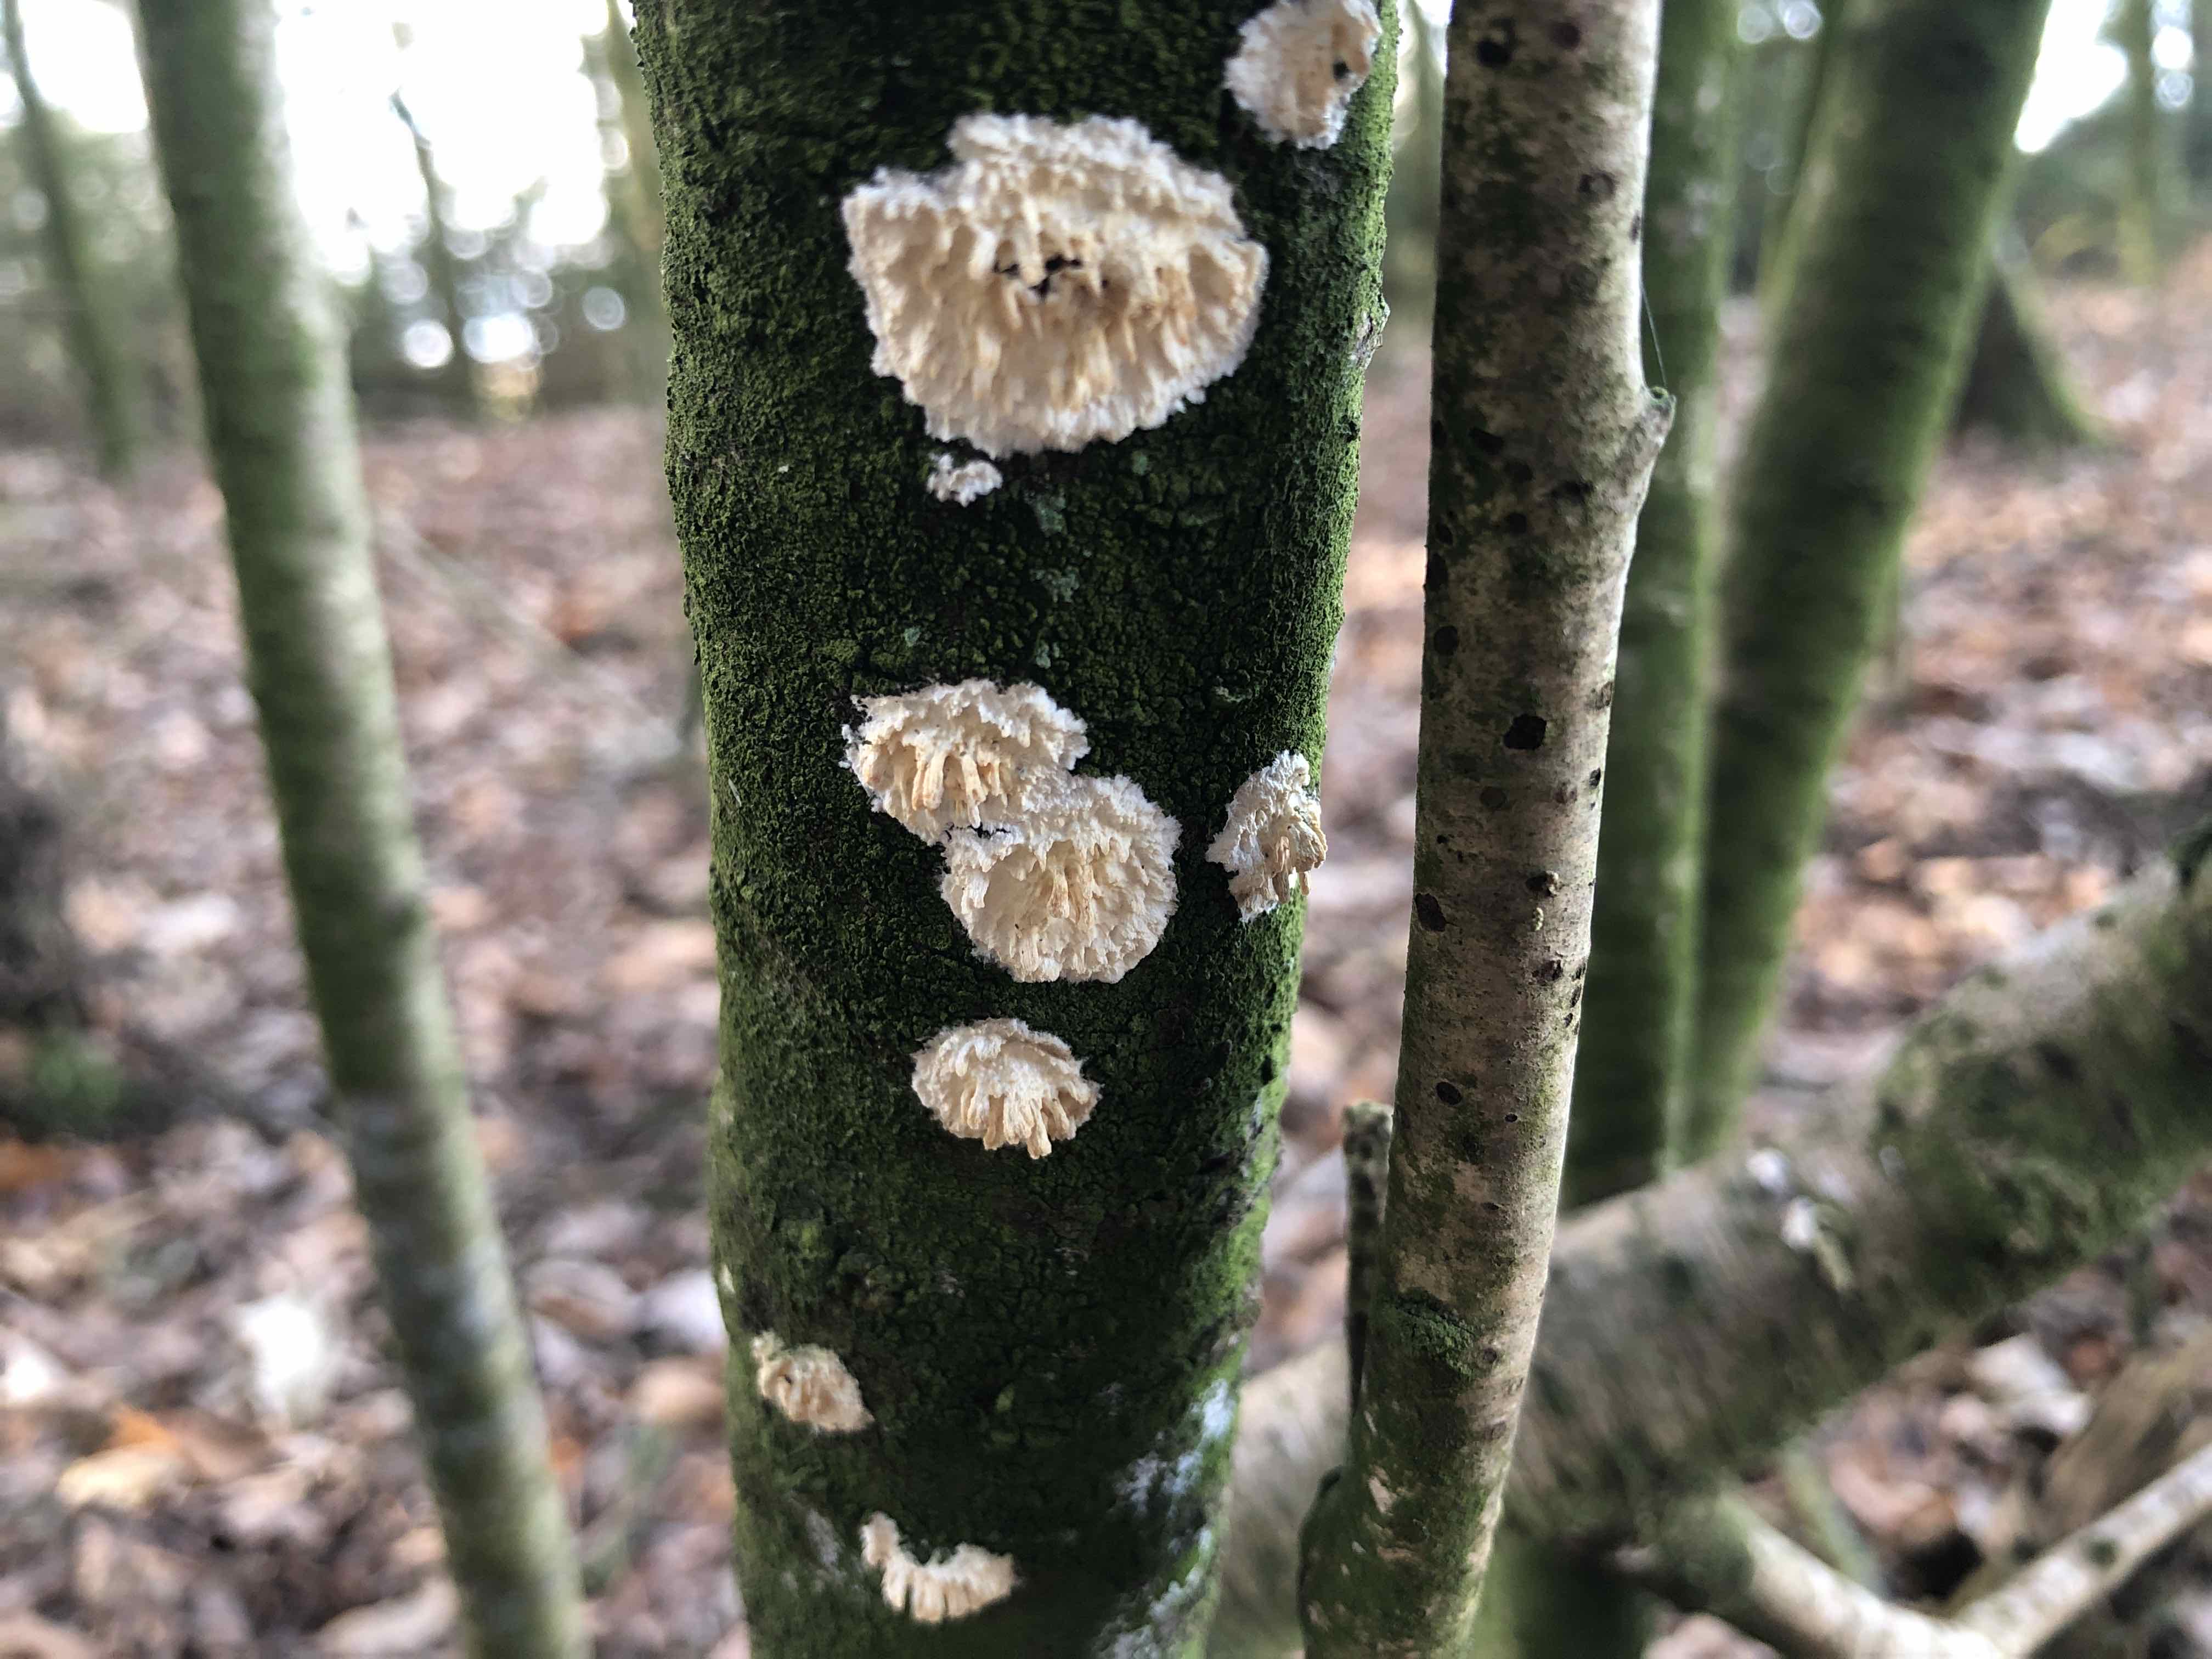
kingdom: Fungi
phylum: Basidiomycota
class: Agaricomycetes
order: Hymenochaetales
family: Schizoporaceae
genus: Xylodon
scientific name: Xylodon radula
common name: grovtandet kalkskind
